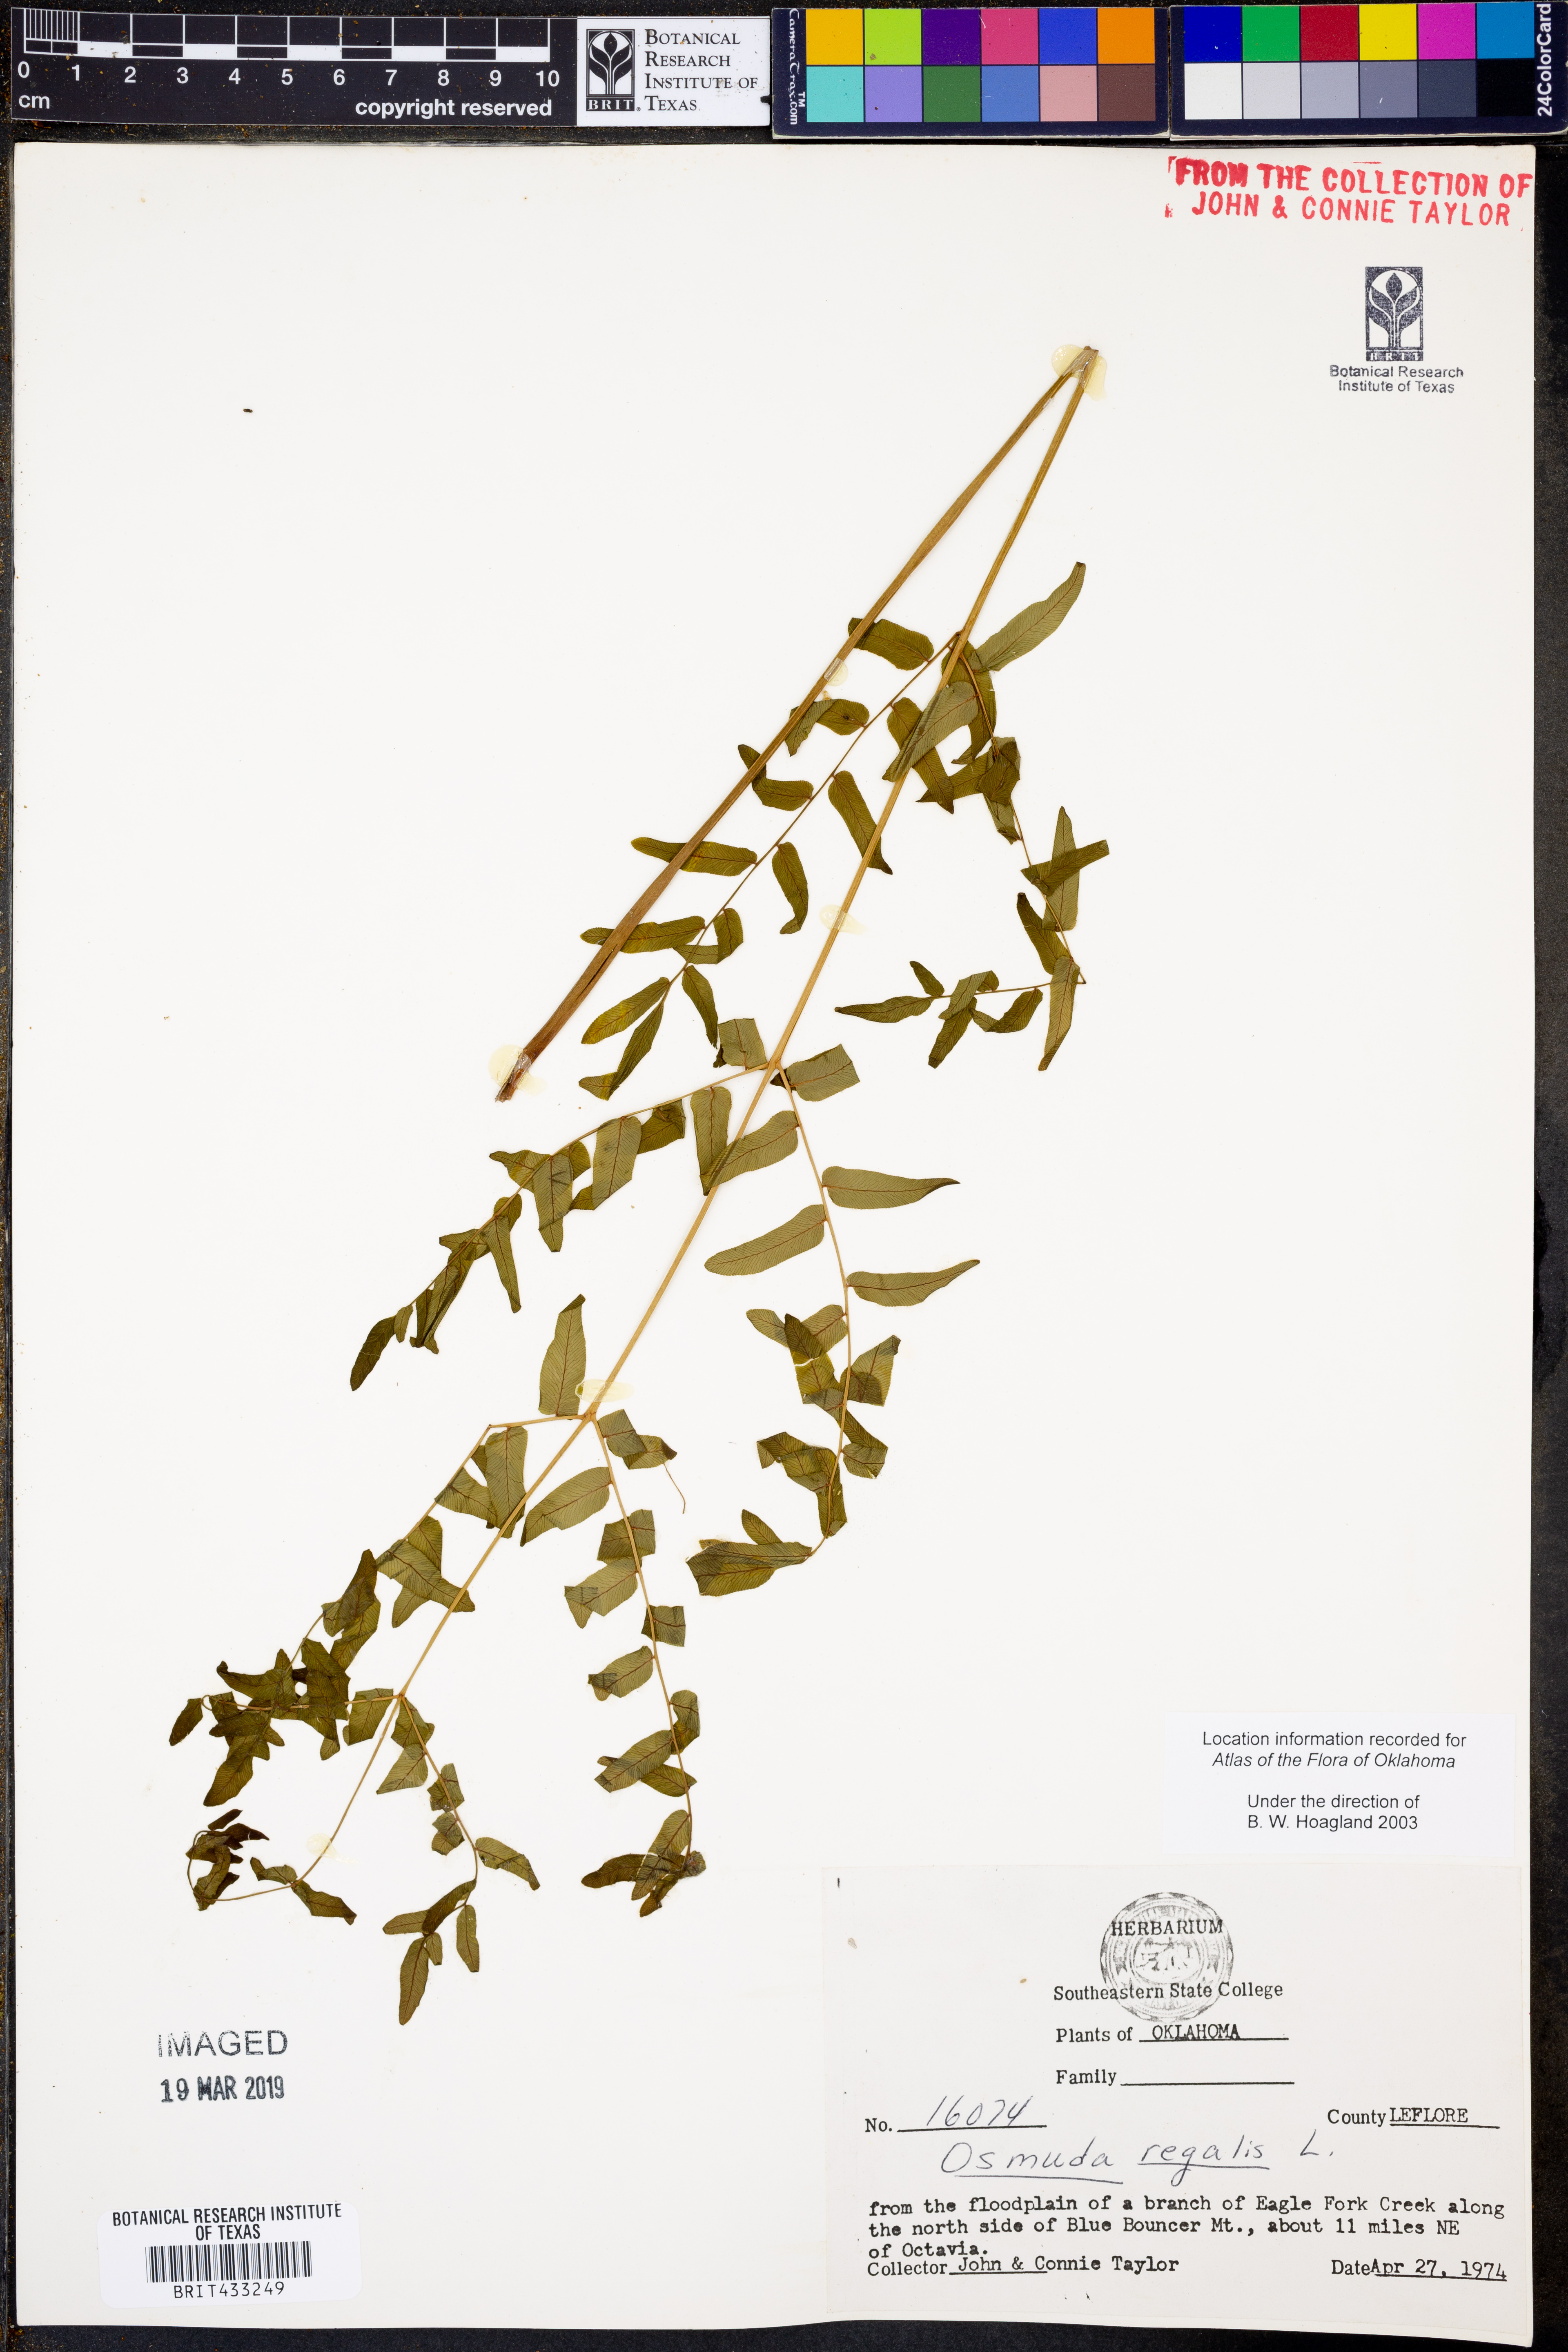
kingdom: Plantae
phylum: Tracheophyta
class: Polypodiopsida
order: Osmundales
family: Osmundaceae
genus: Osmunda
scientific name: Osmunda regalis
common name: Royal fern
